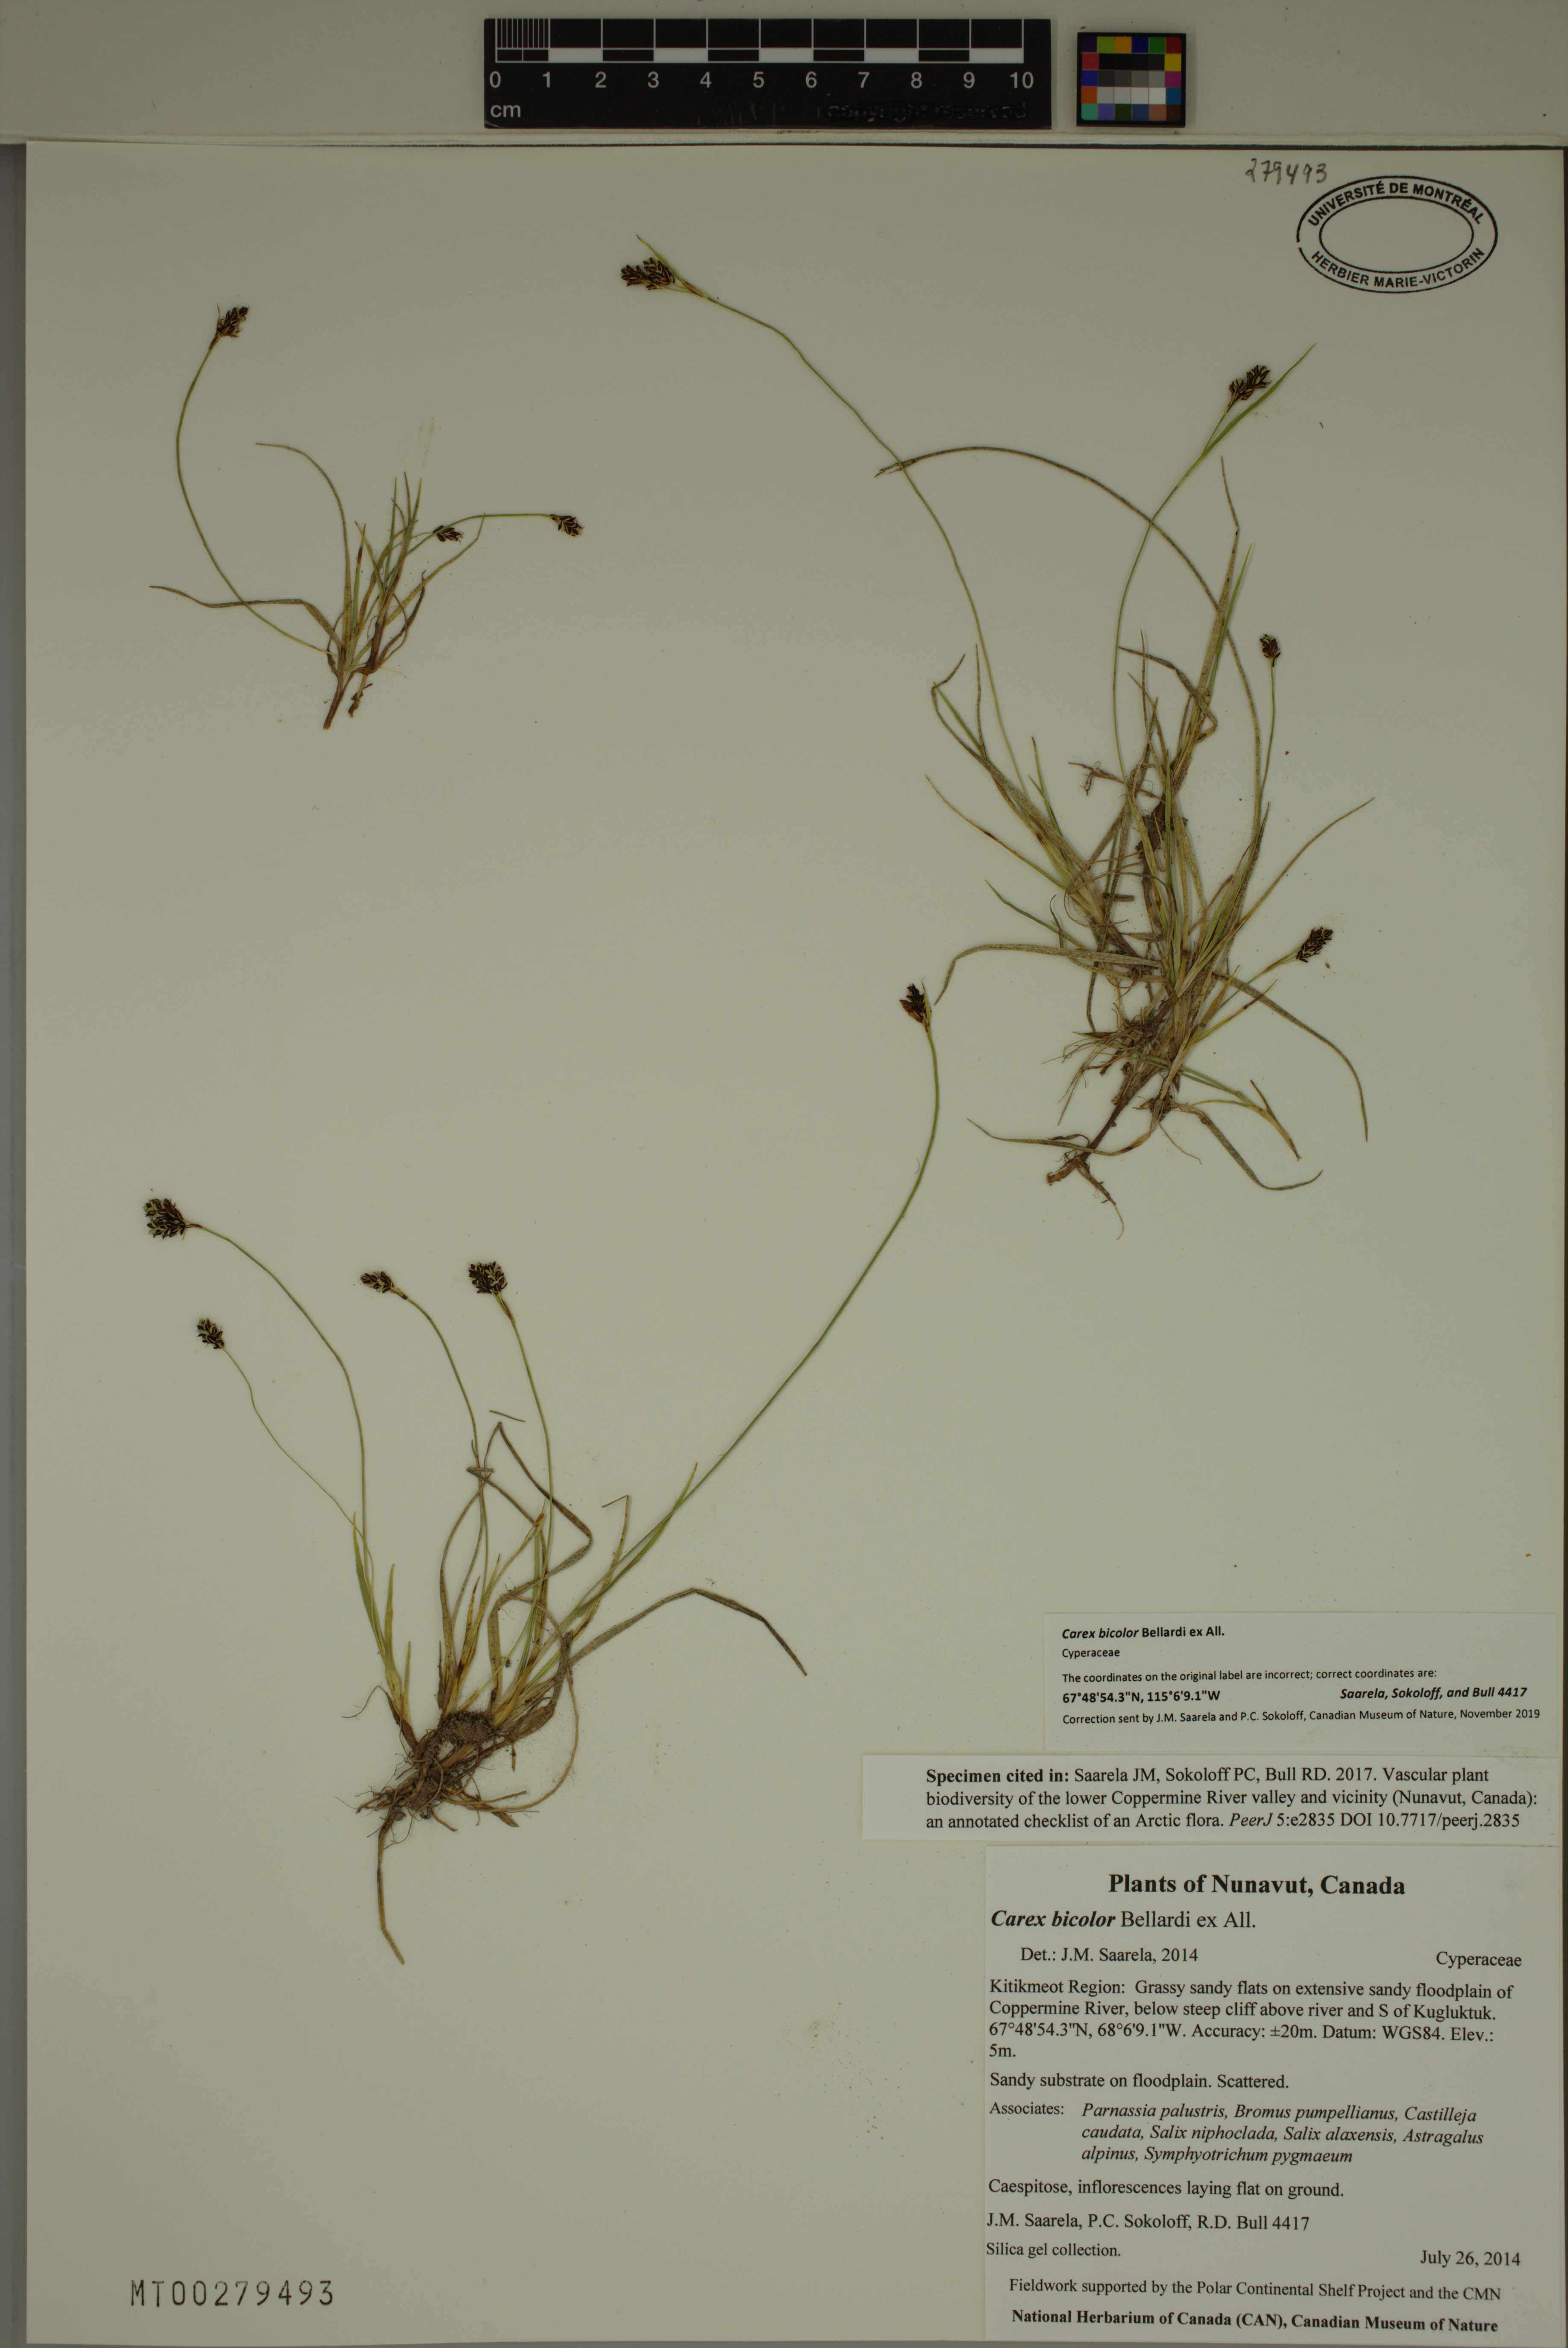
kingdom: Plantae
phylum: Tracheophyta
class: Liliopsida
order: Poales
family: Cyperaceae
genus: Carex
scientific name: Carex bicolor
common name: Bicoloured sedge
